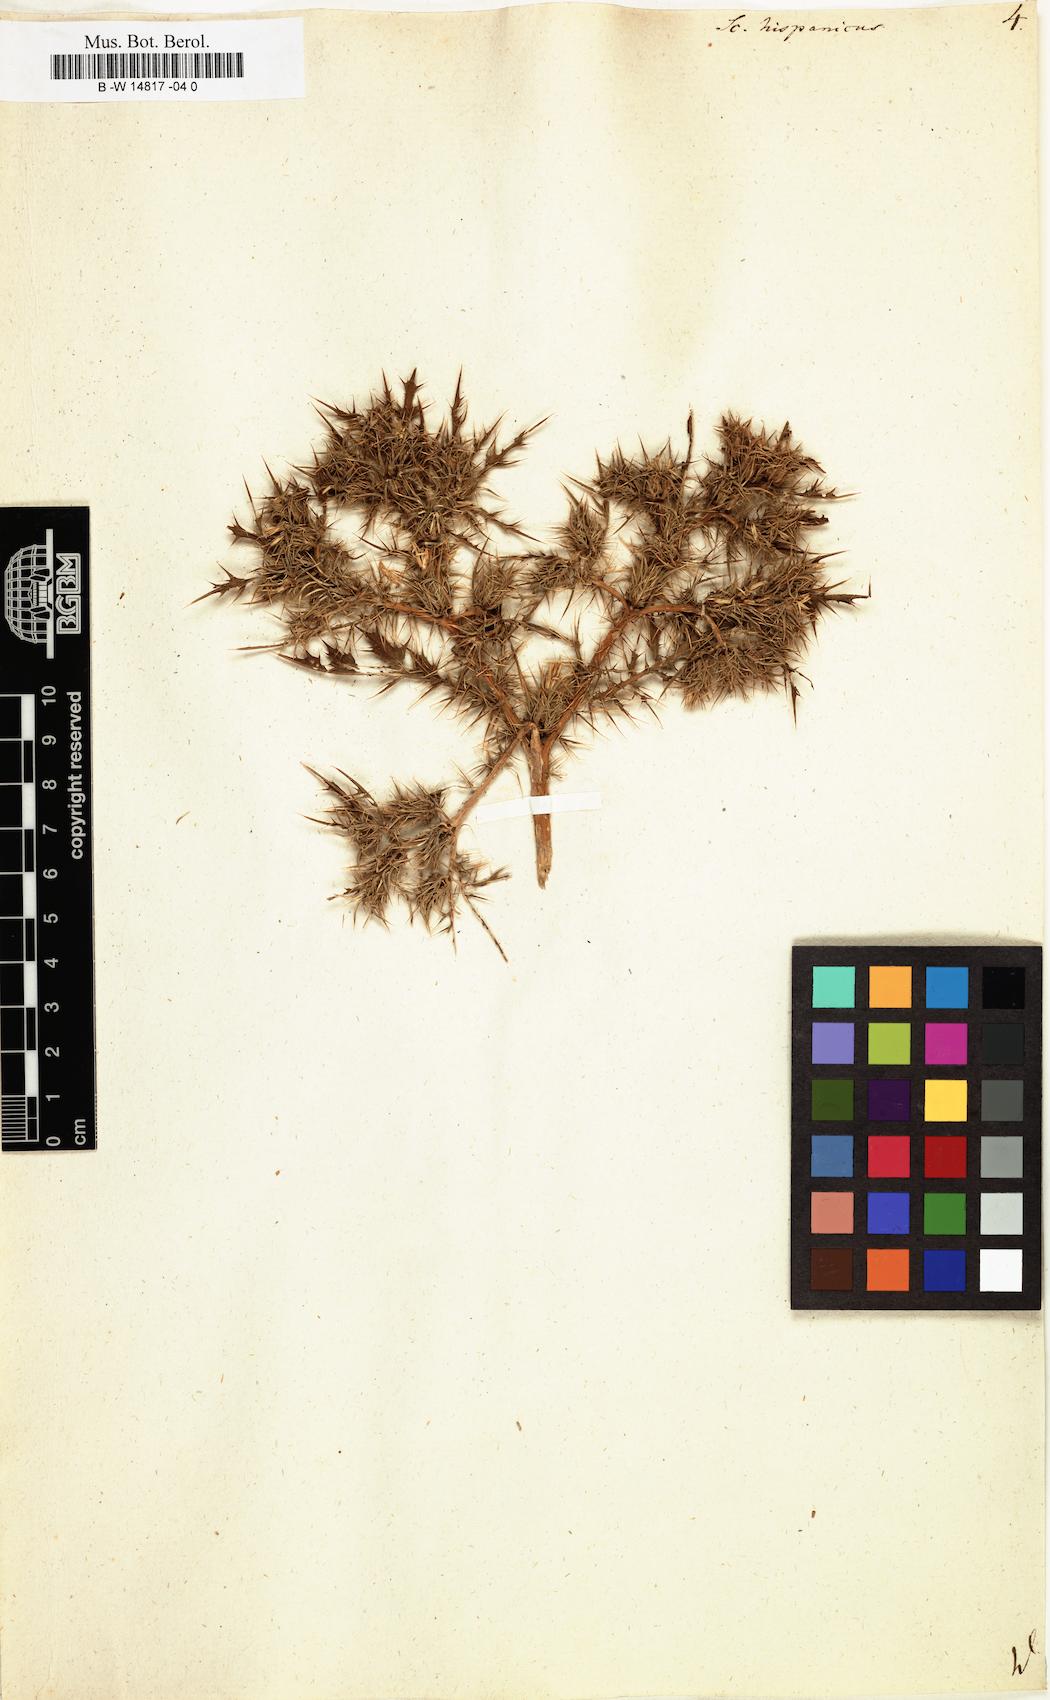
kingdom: Plantae
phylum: Tracheophyta
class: Magnoliopsida
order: Asterales
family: Asteraceae
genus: Scolymus
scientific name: Scolymus hispanicus
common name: Golden thistle
